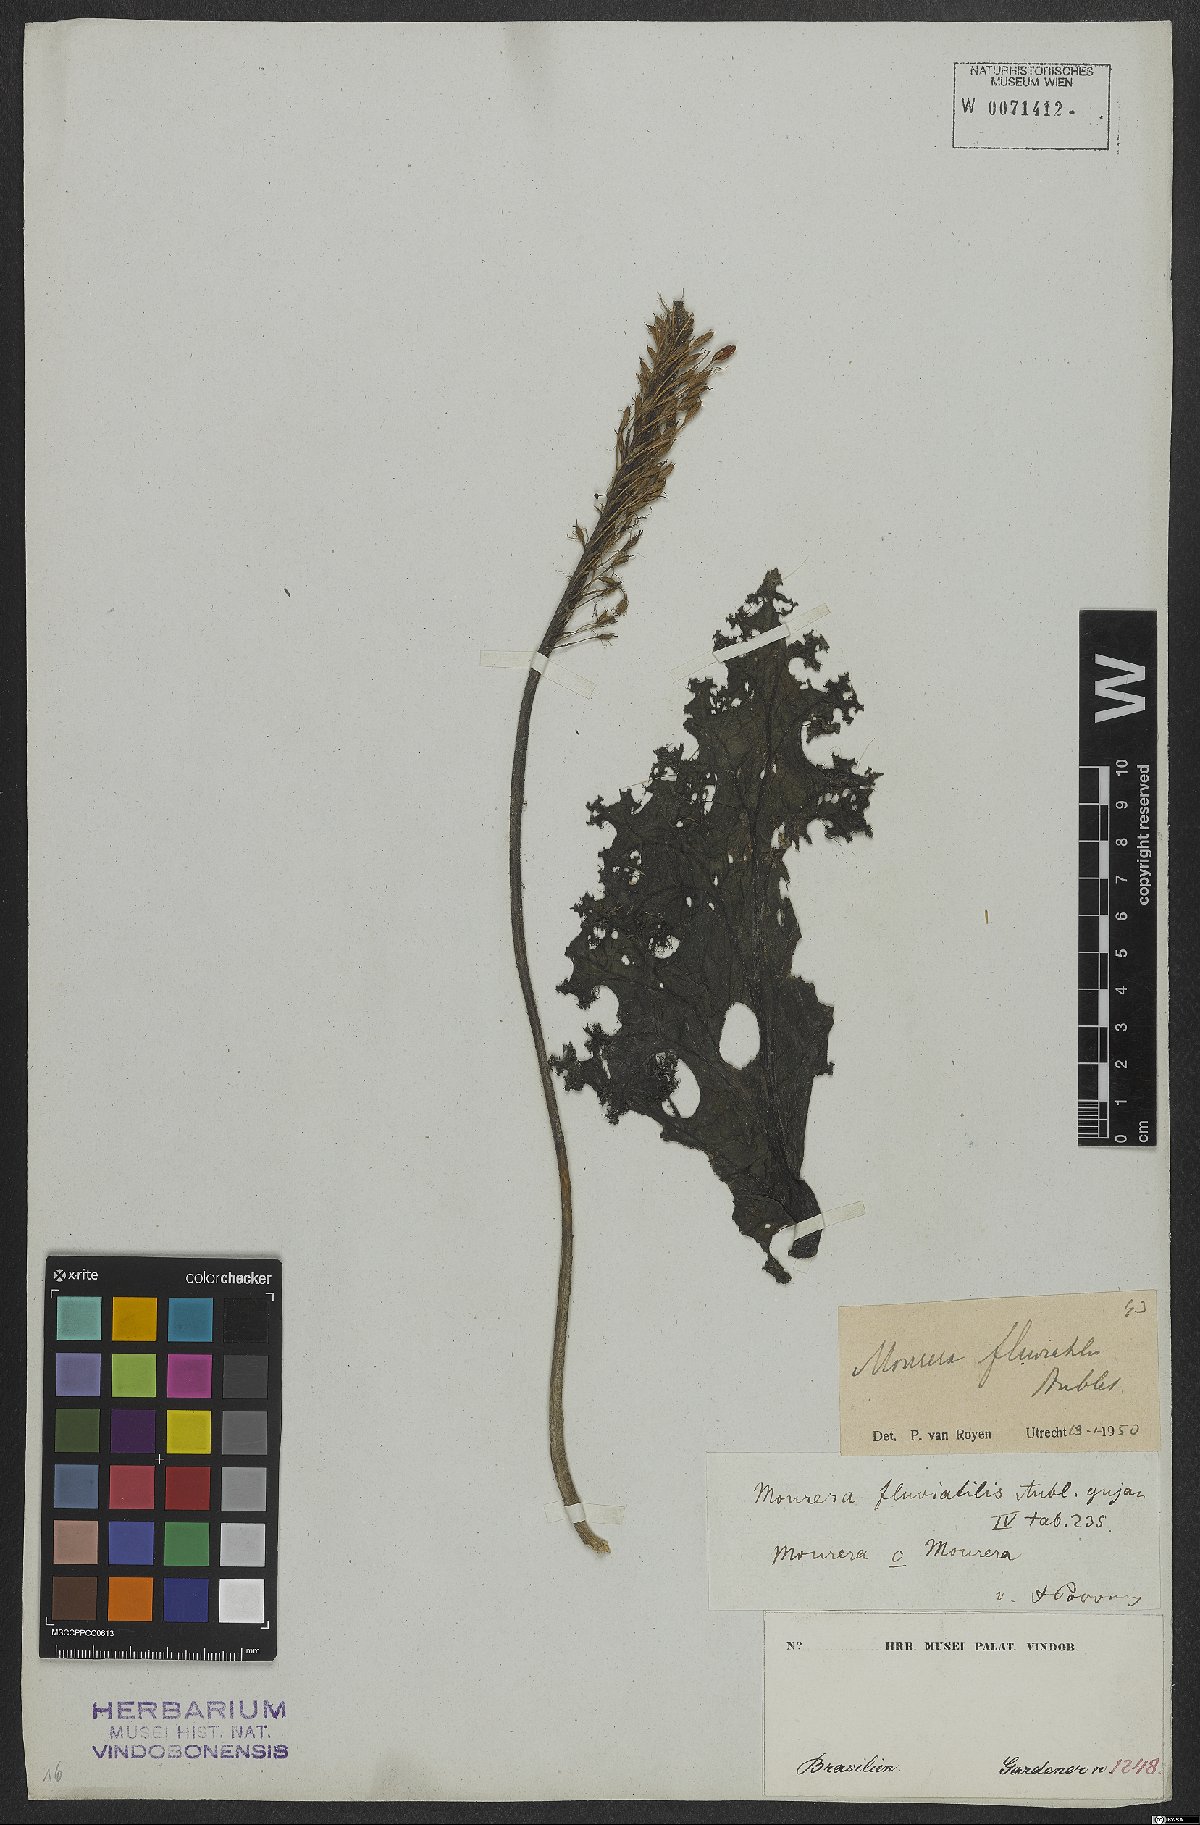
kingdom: Plantae
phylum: Tracheophyta
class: Magnoliopsida
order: Malpighiales
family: Podostemaceae
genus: Mourera
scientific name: Mourera fluviatilis
